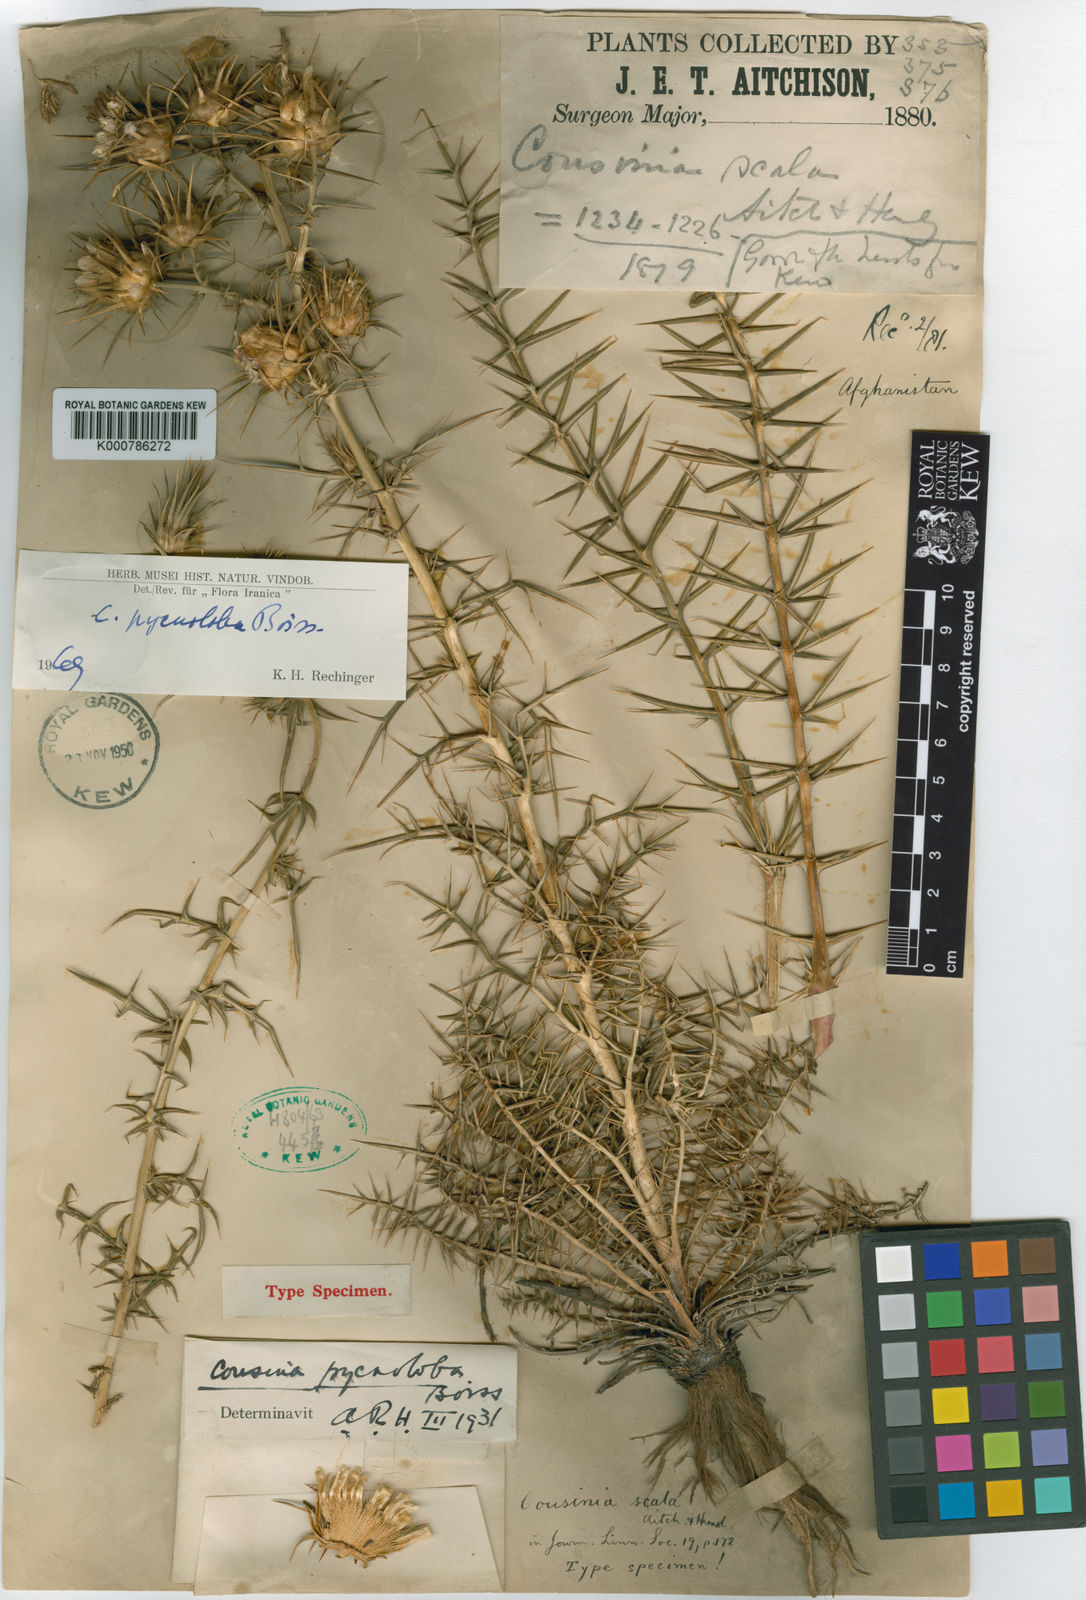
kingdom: Plantae
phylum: Tracheophyta
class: Magnoliopsida
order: Asterales
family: Asteraceae
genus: Cousinia
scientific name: Cousinia pycnoloba
